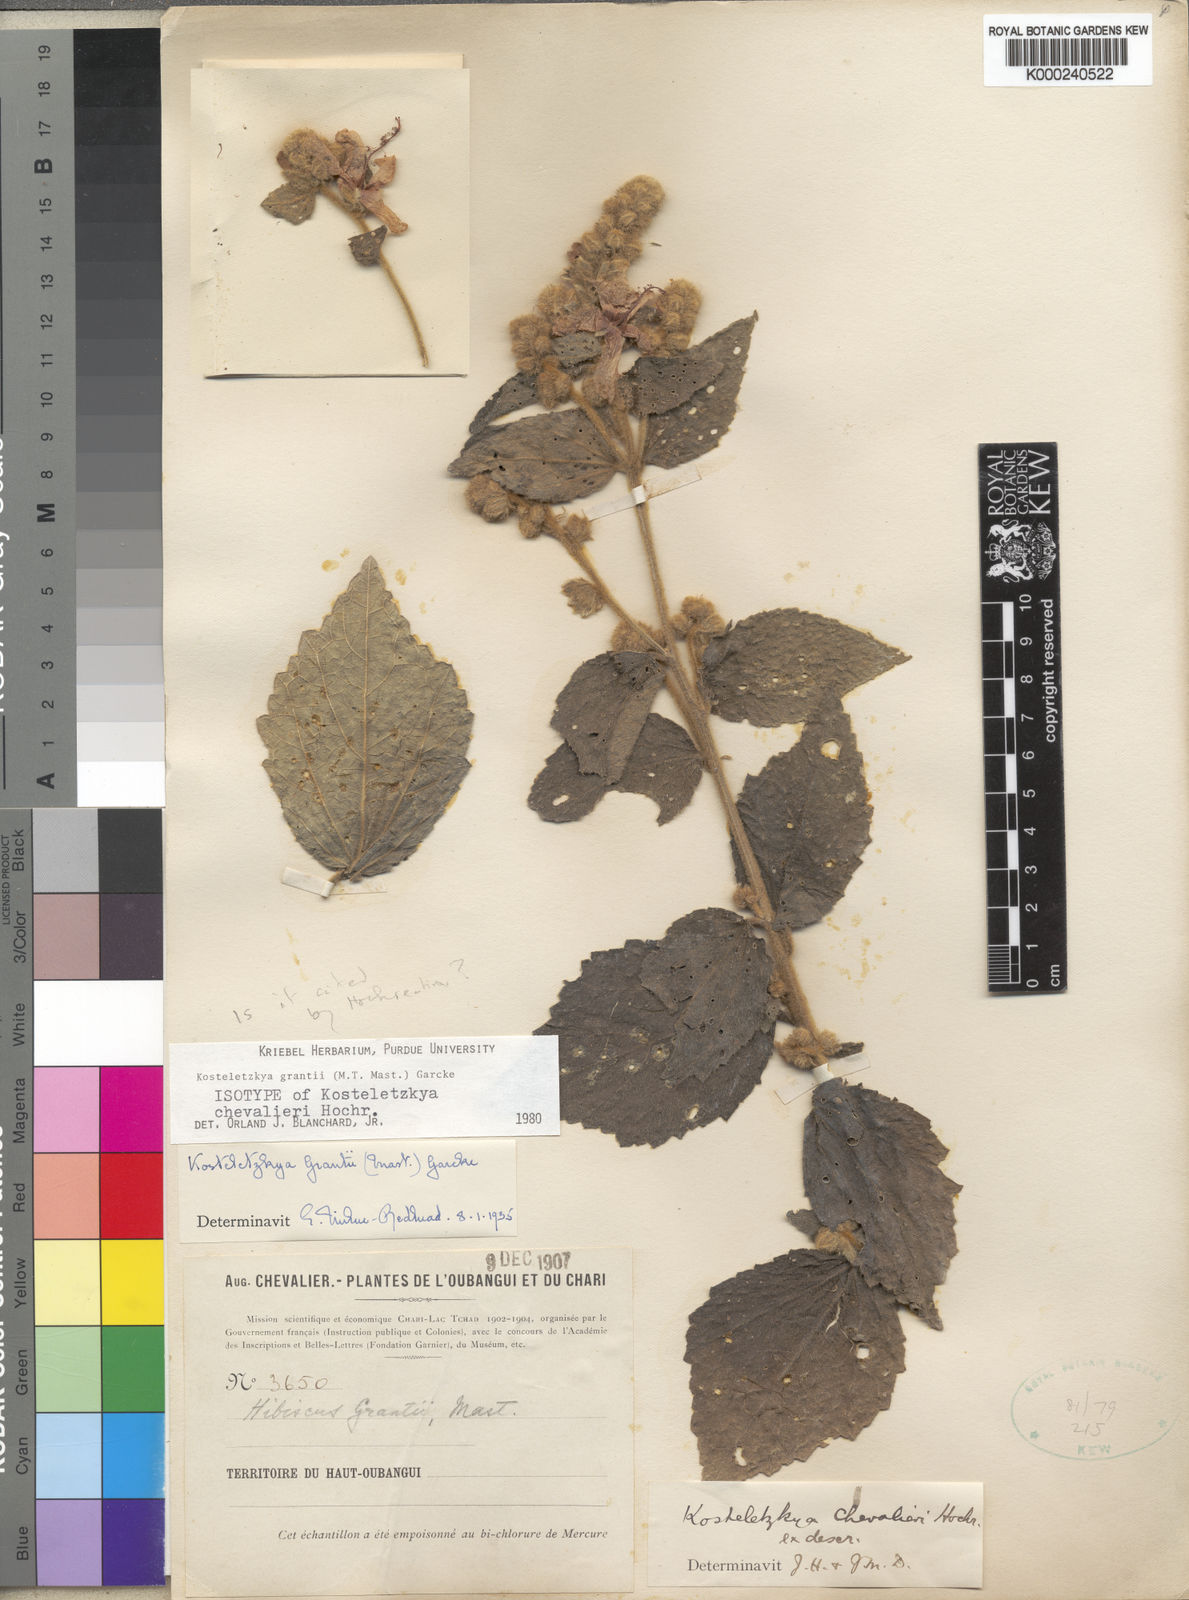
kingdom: Plantae
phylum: Tracheophyta
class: Magnoliopsida
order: Malvales
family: Malvaceae
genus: Kosteletzkya
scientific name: Kosteletzkya grantii
